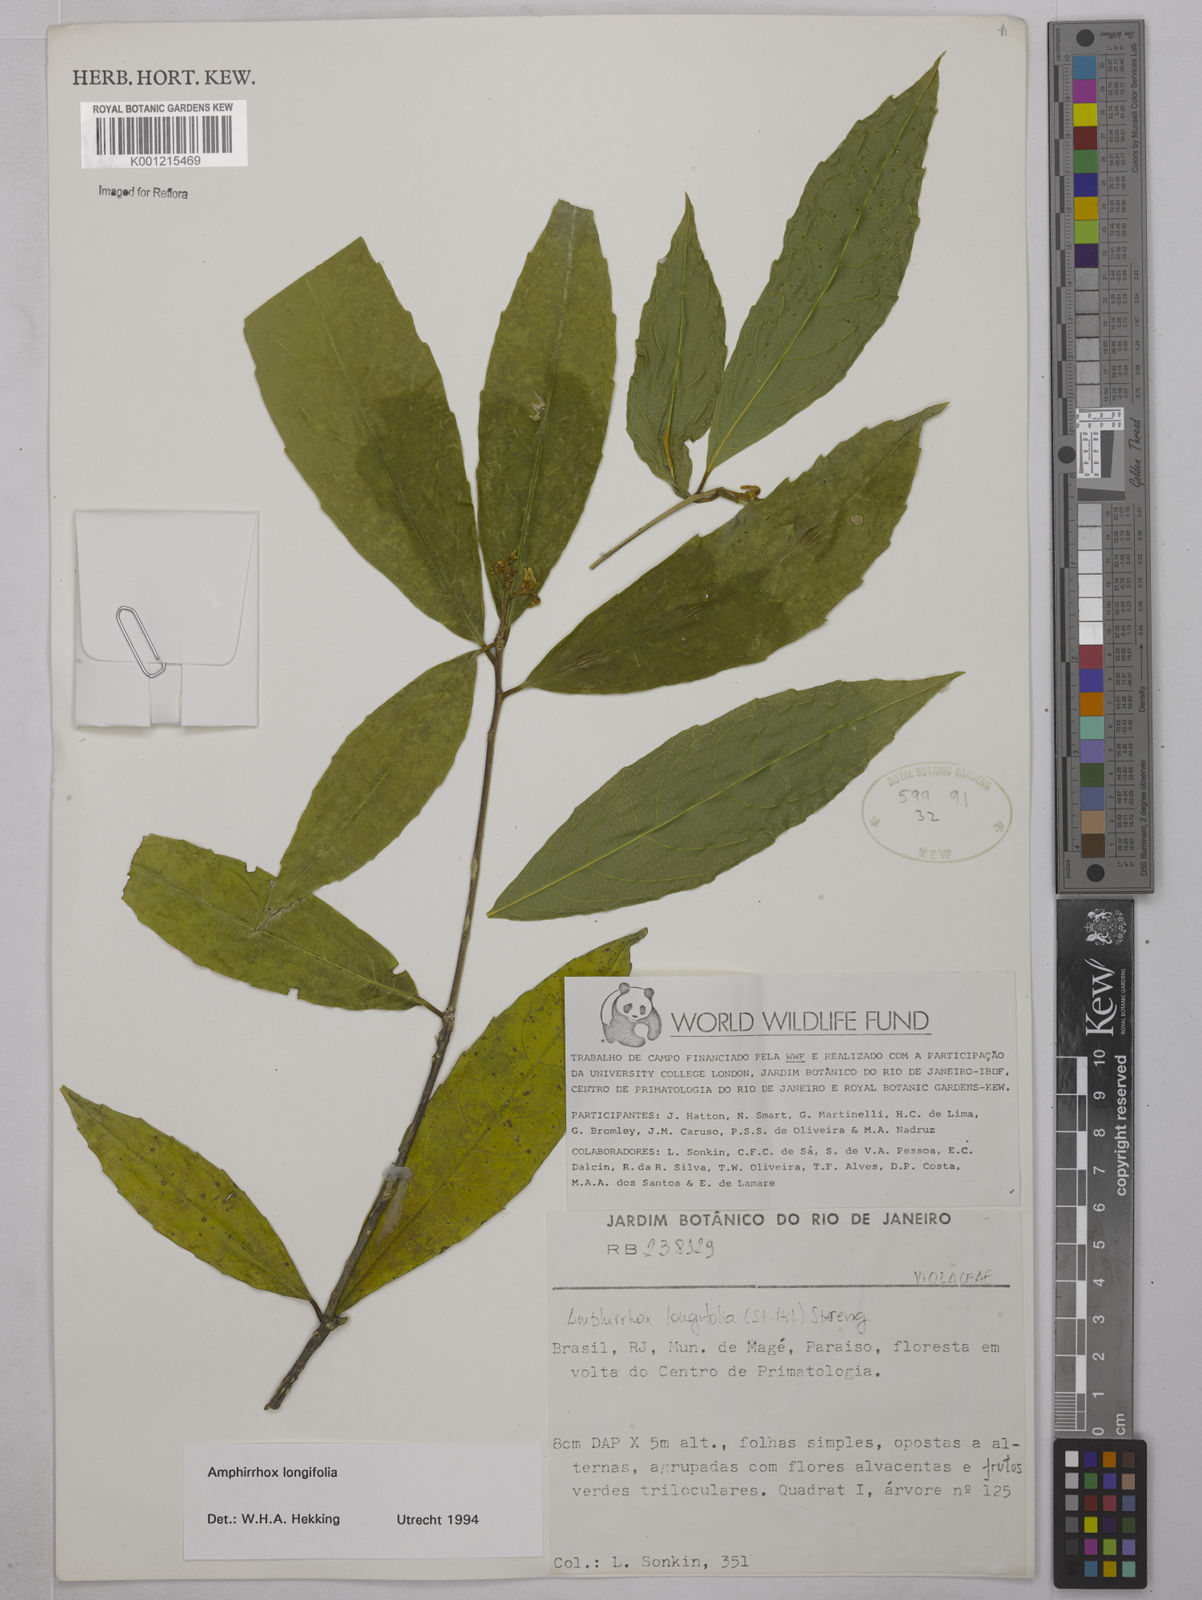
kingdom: Plantae
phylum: Tracheophyta
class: Magnoliopsida
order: Malpighiales
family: Violaceae
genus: Amphirrhox
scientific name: Amphirrhox longifolia
